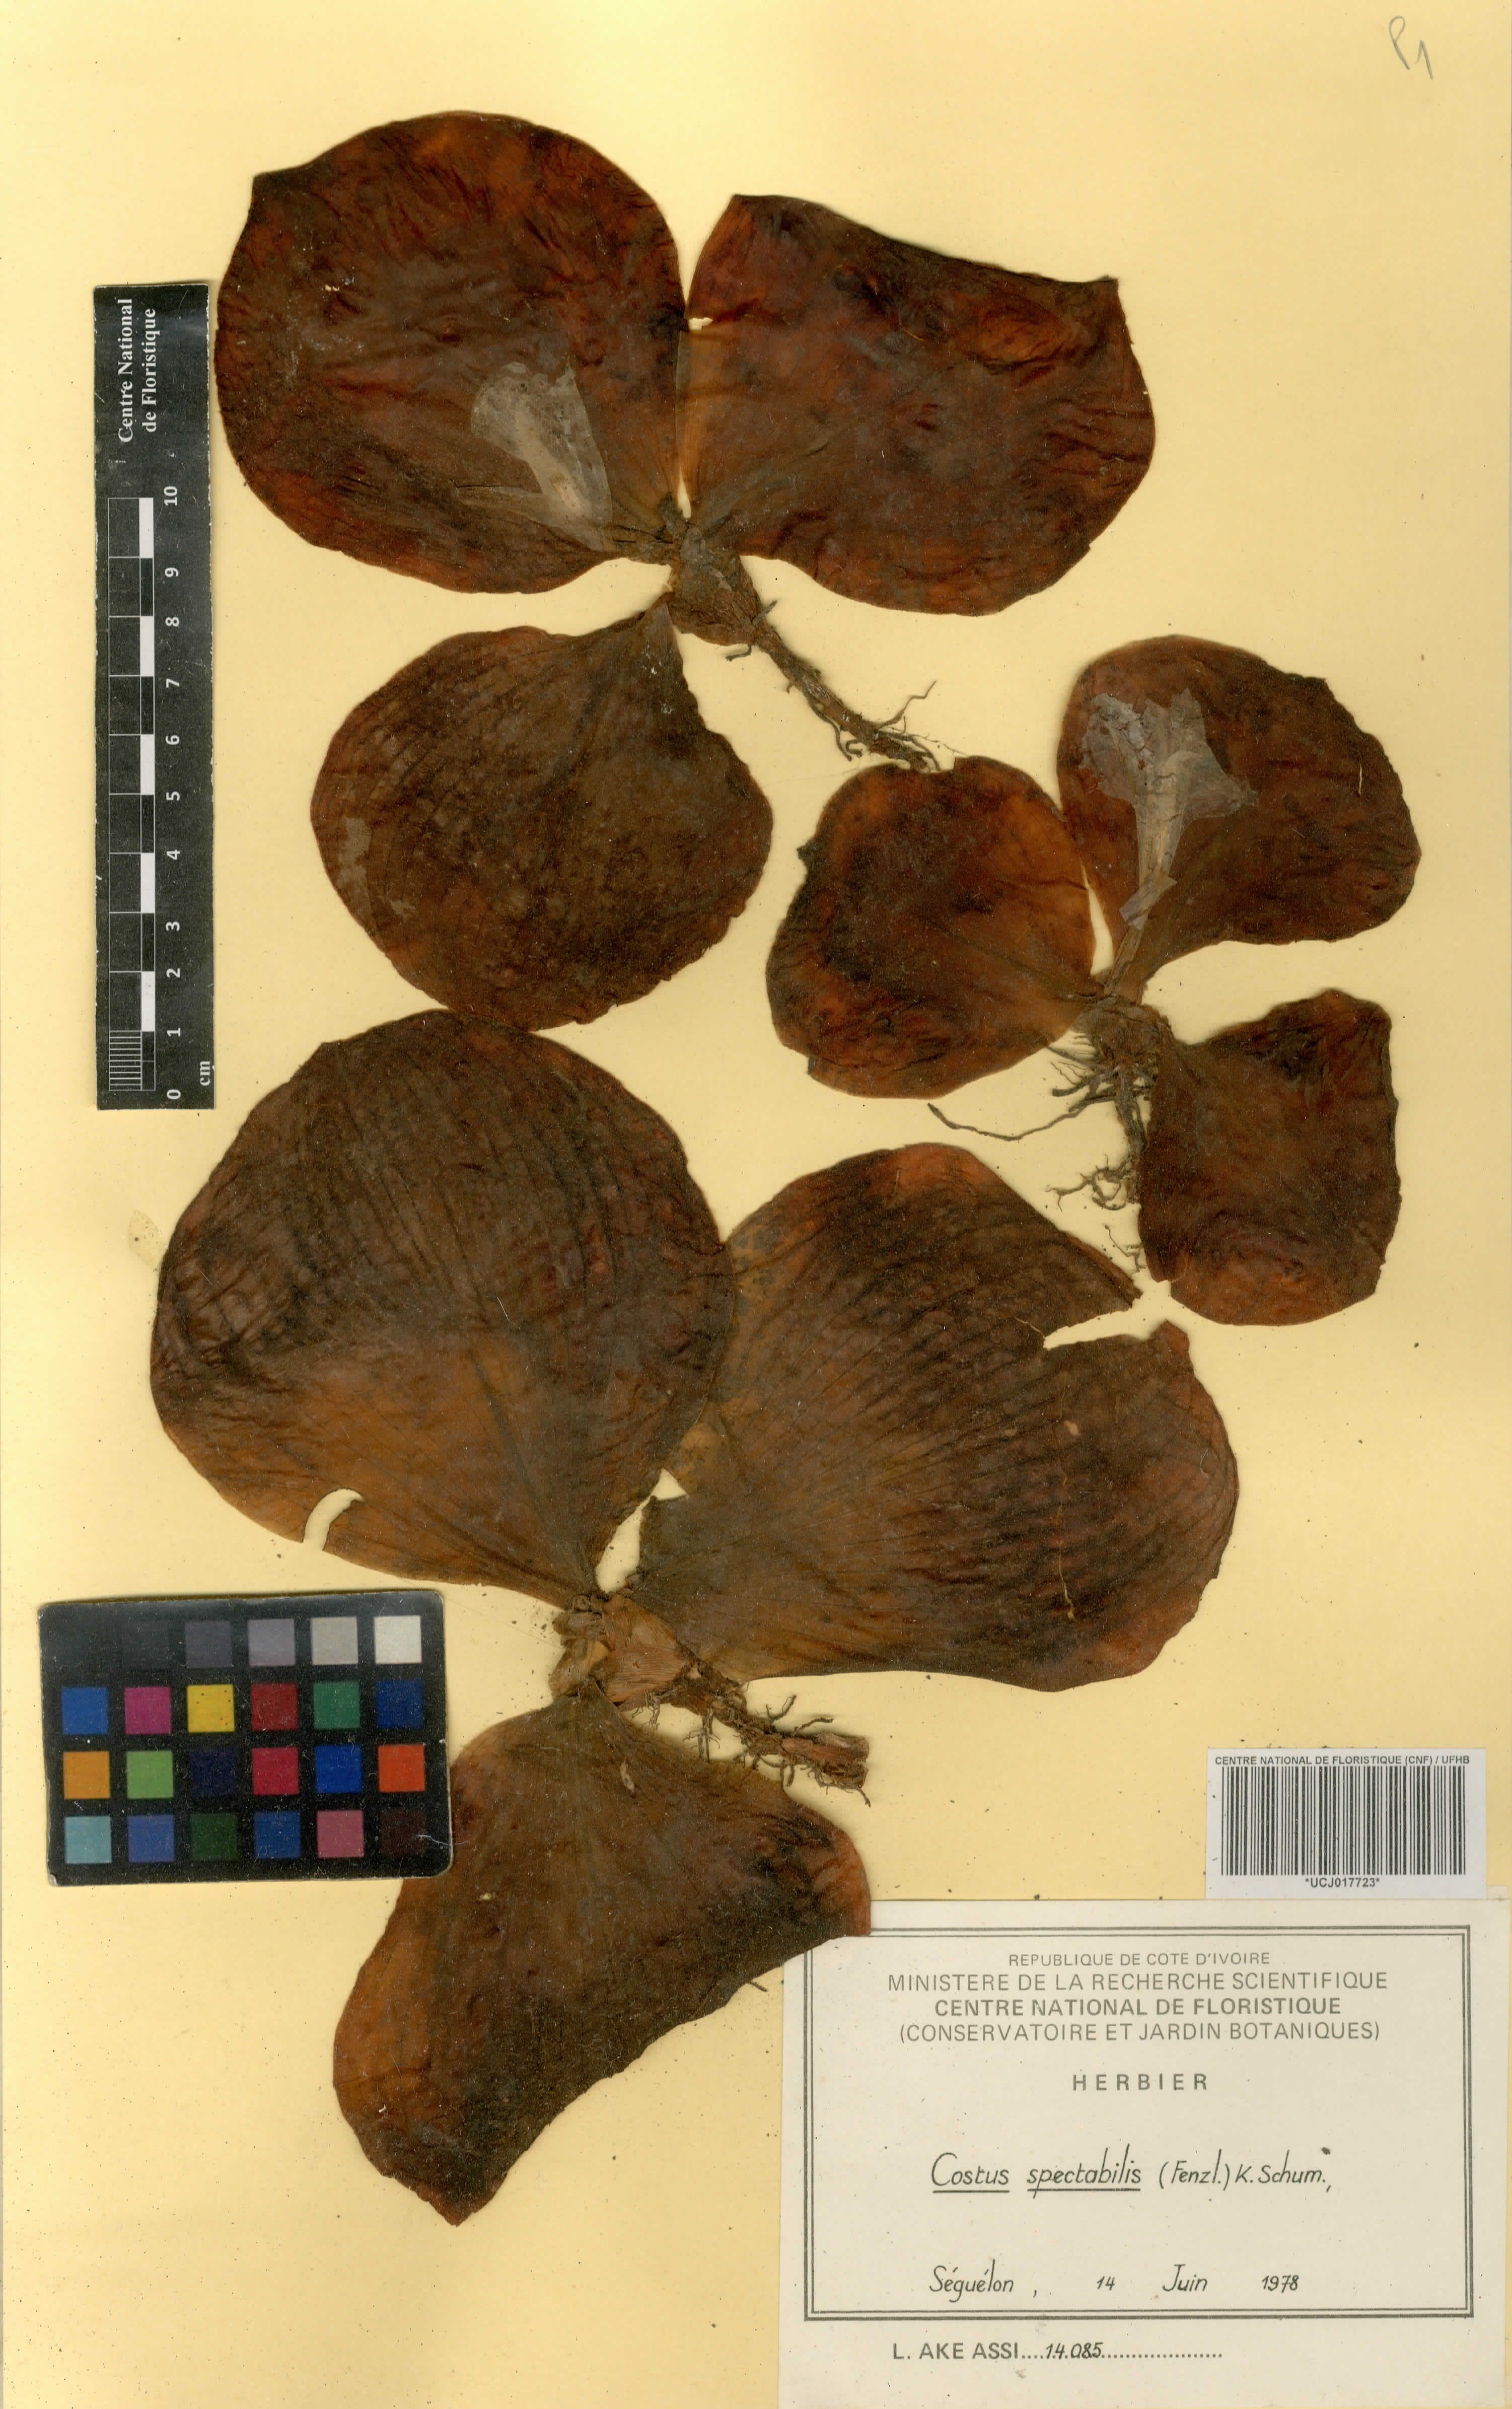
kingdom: Plantae
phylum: Tracheophyta
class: Liliopsida
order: Zingiberales
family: Costaceae
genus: Costus
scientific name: Costus spectabilis
